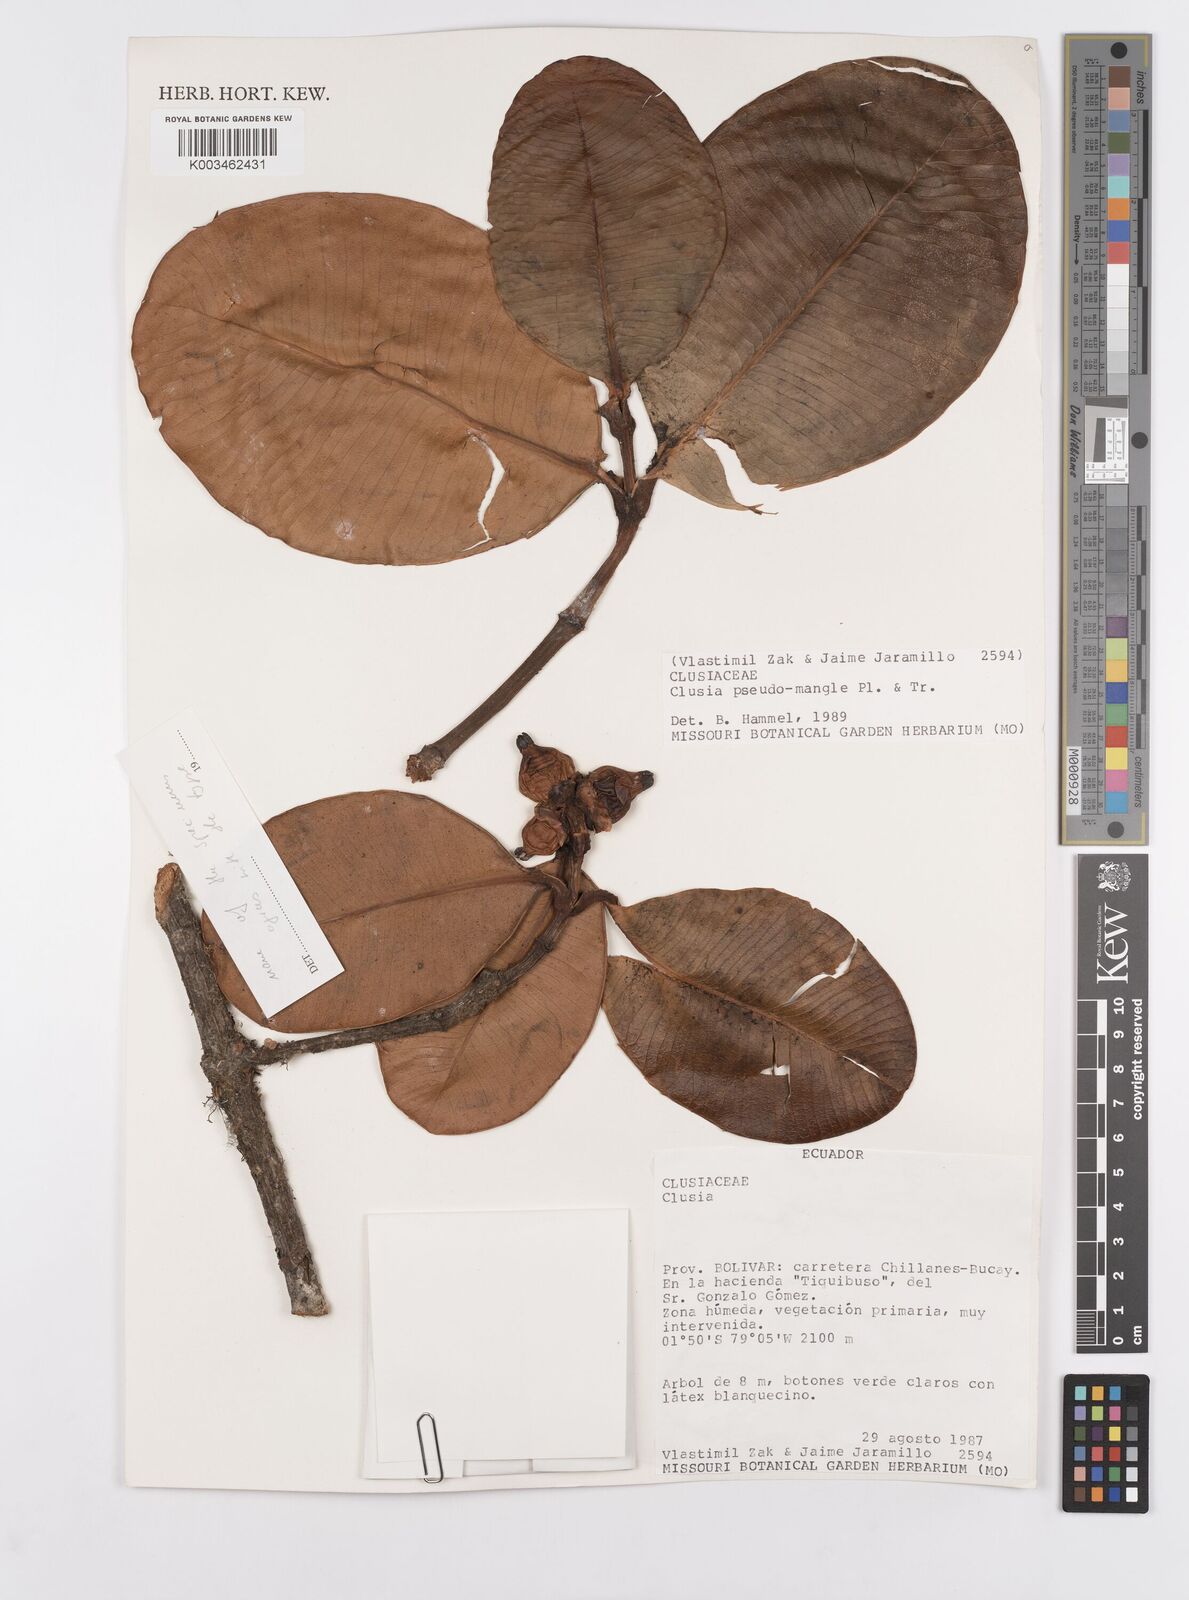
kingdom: Plantae
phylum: Tracheophyta
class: Magnoliopsida
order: Malpighiales
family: Clusiaceae
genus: Clusia
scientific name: Clusia pseudomangle
